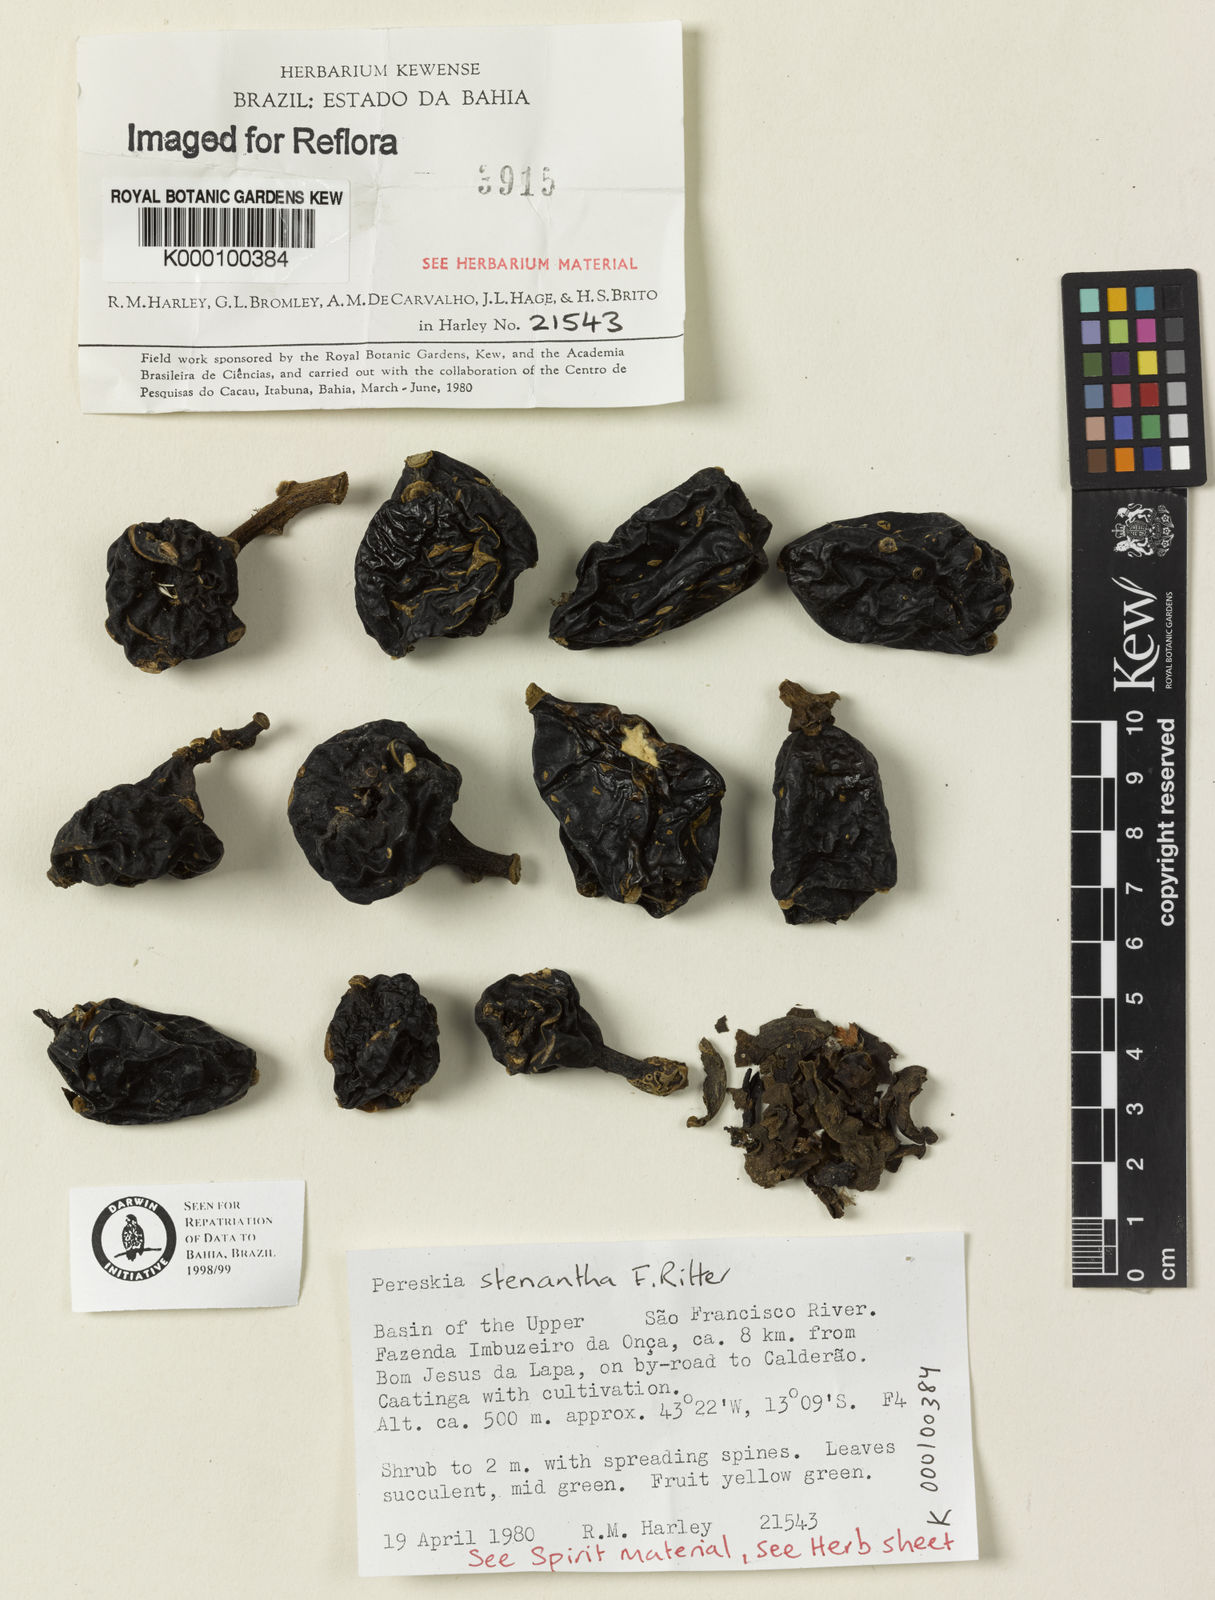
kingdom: Plantae
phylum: Tracheophyta
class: Magnoliopsida
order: Caryophyllales
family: Cactaceae
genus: Pereskia
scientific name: Pereskia stenantha
